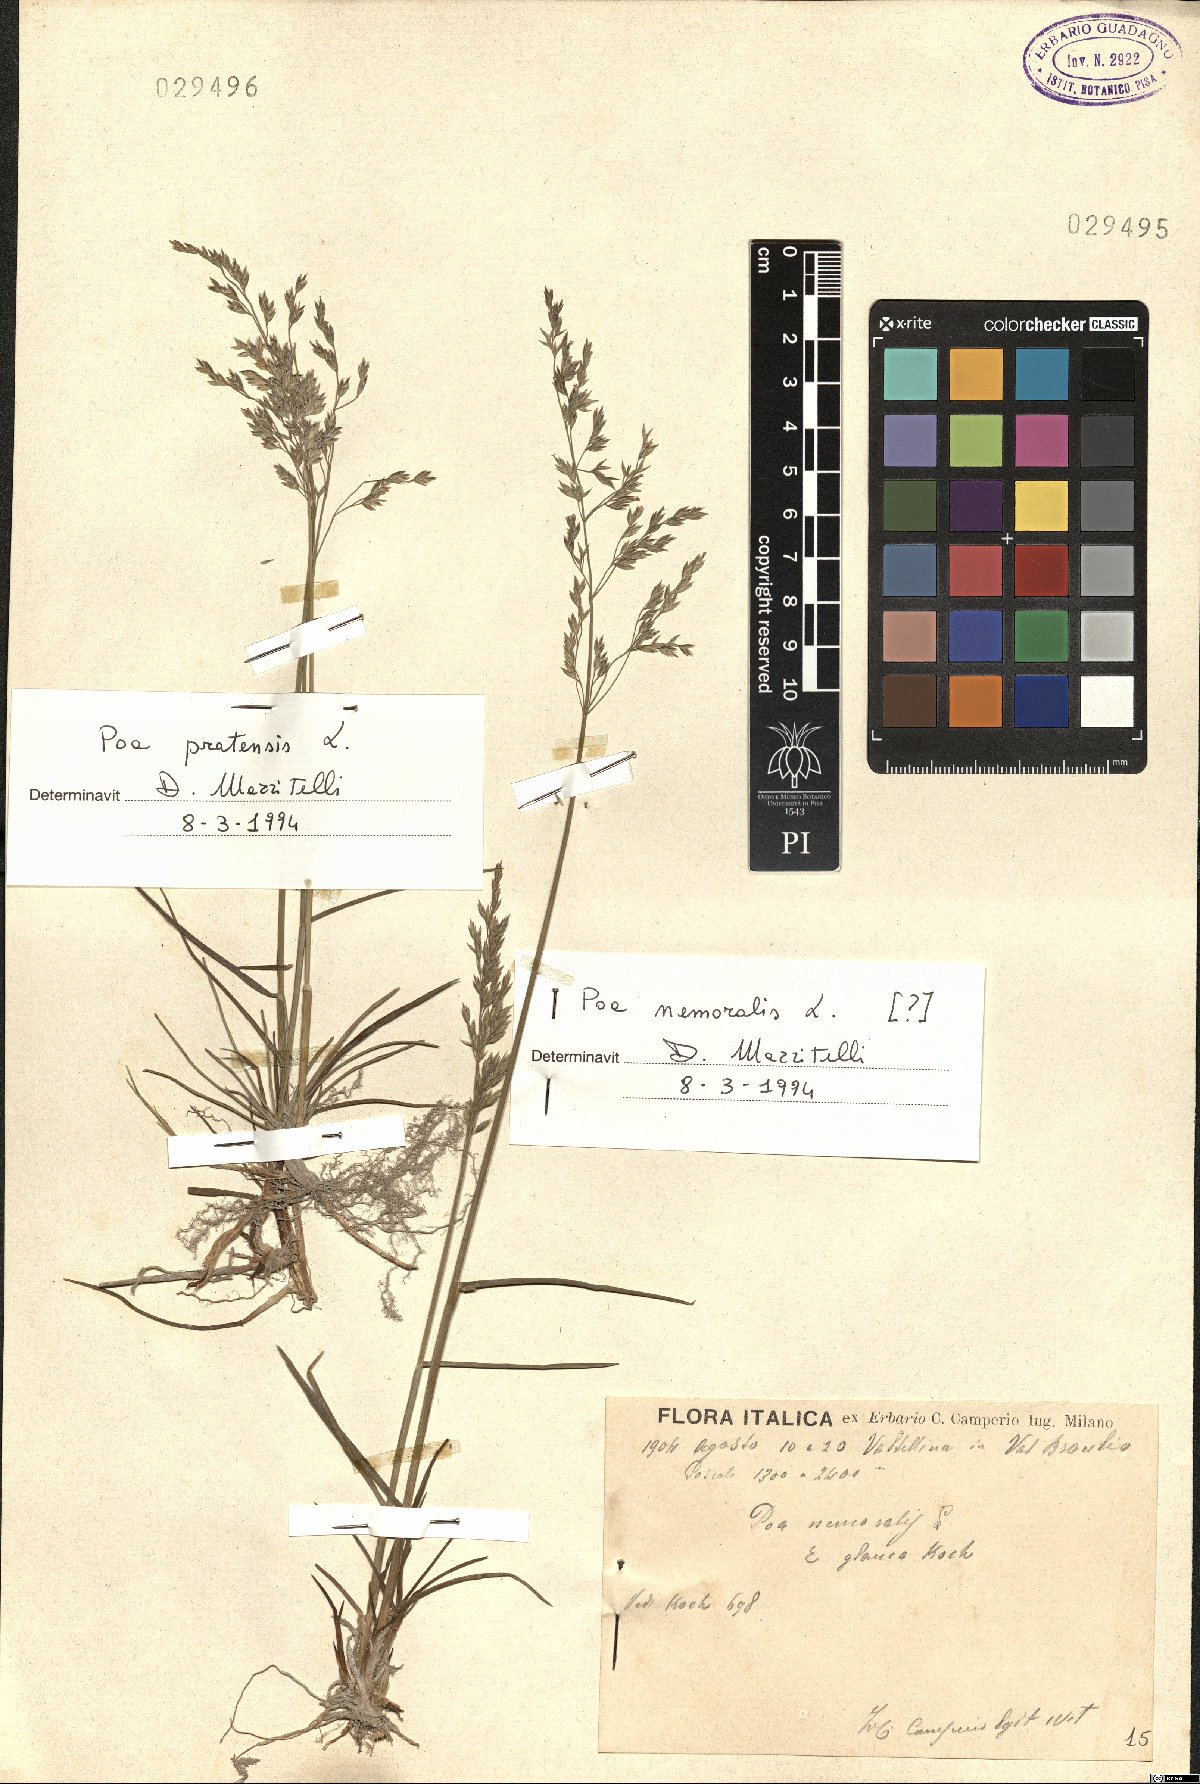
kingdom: Plantae
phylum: Tracheophyta
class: Liliopsida
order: Poales
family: Poaceae
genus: Poa
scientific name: Poa pratensis
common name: Kentucky bluegrass
